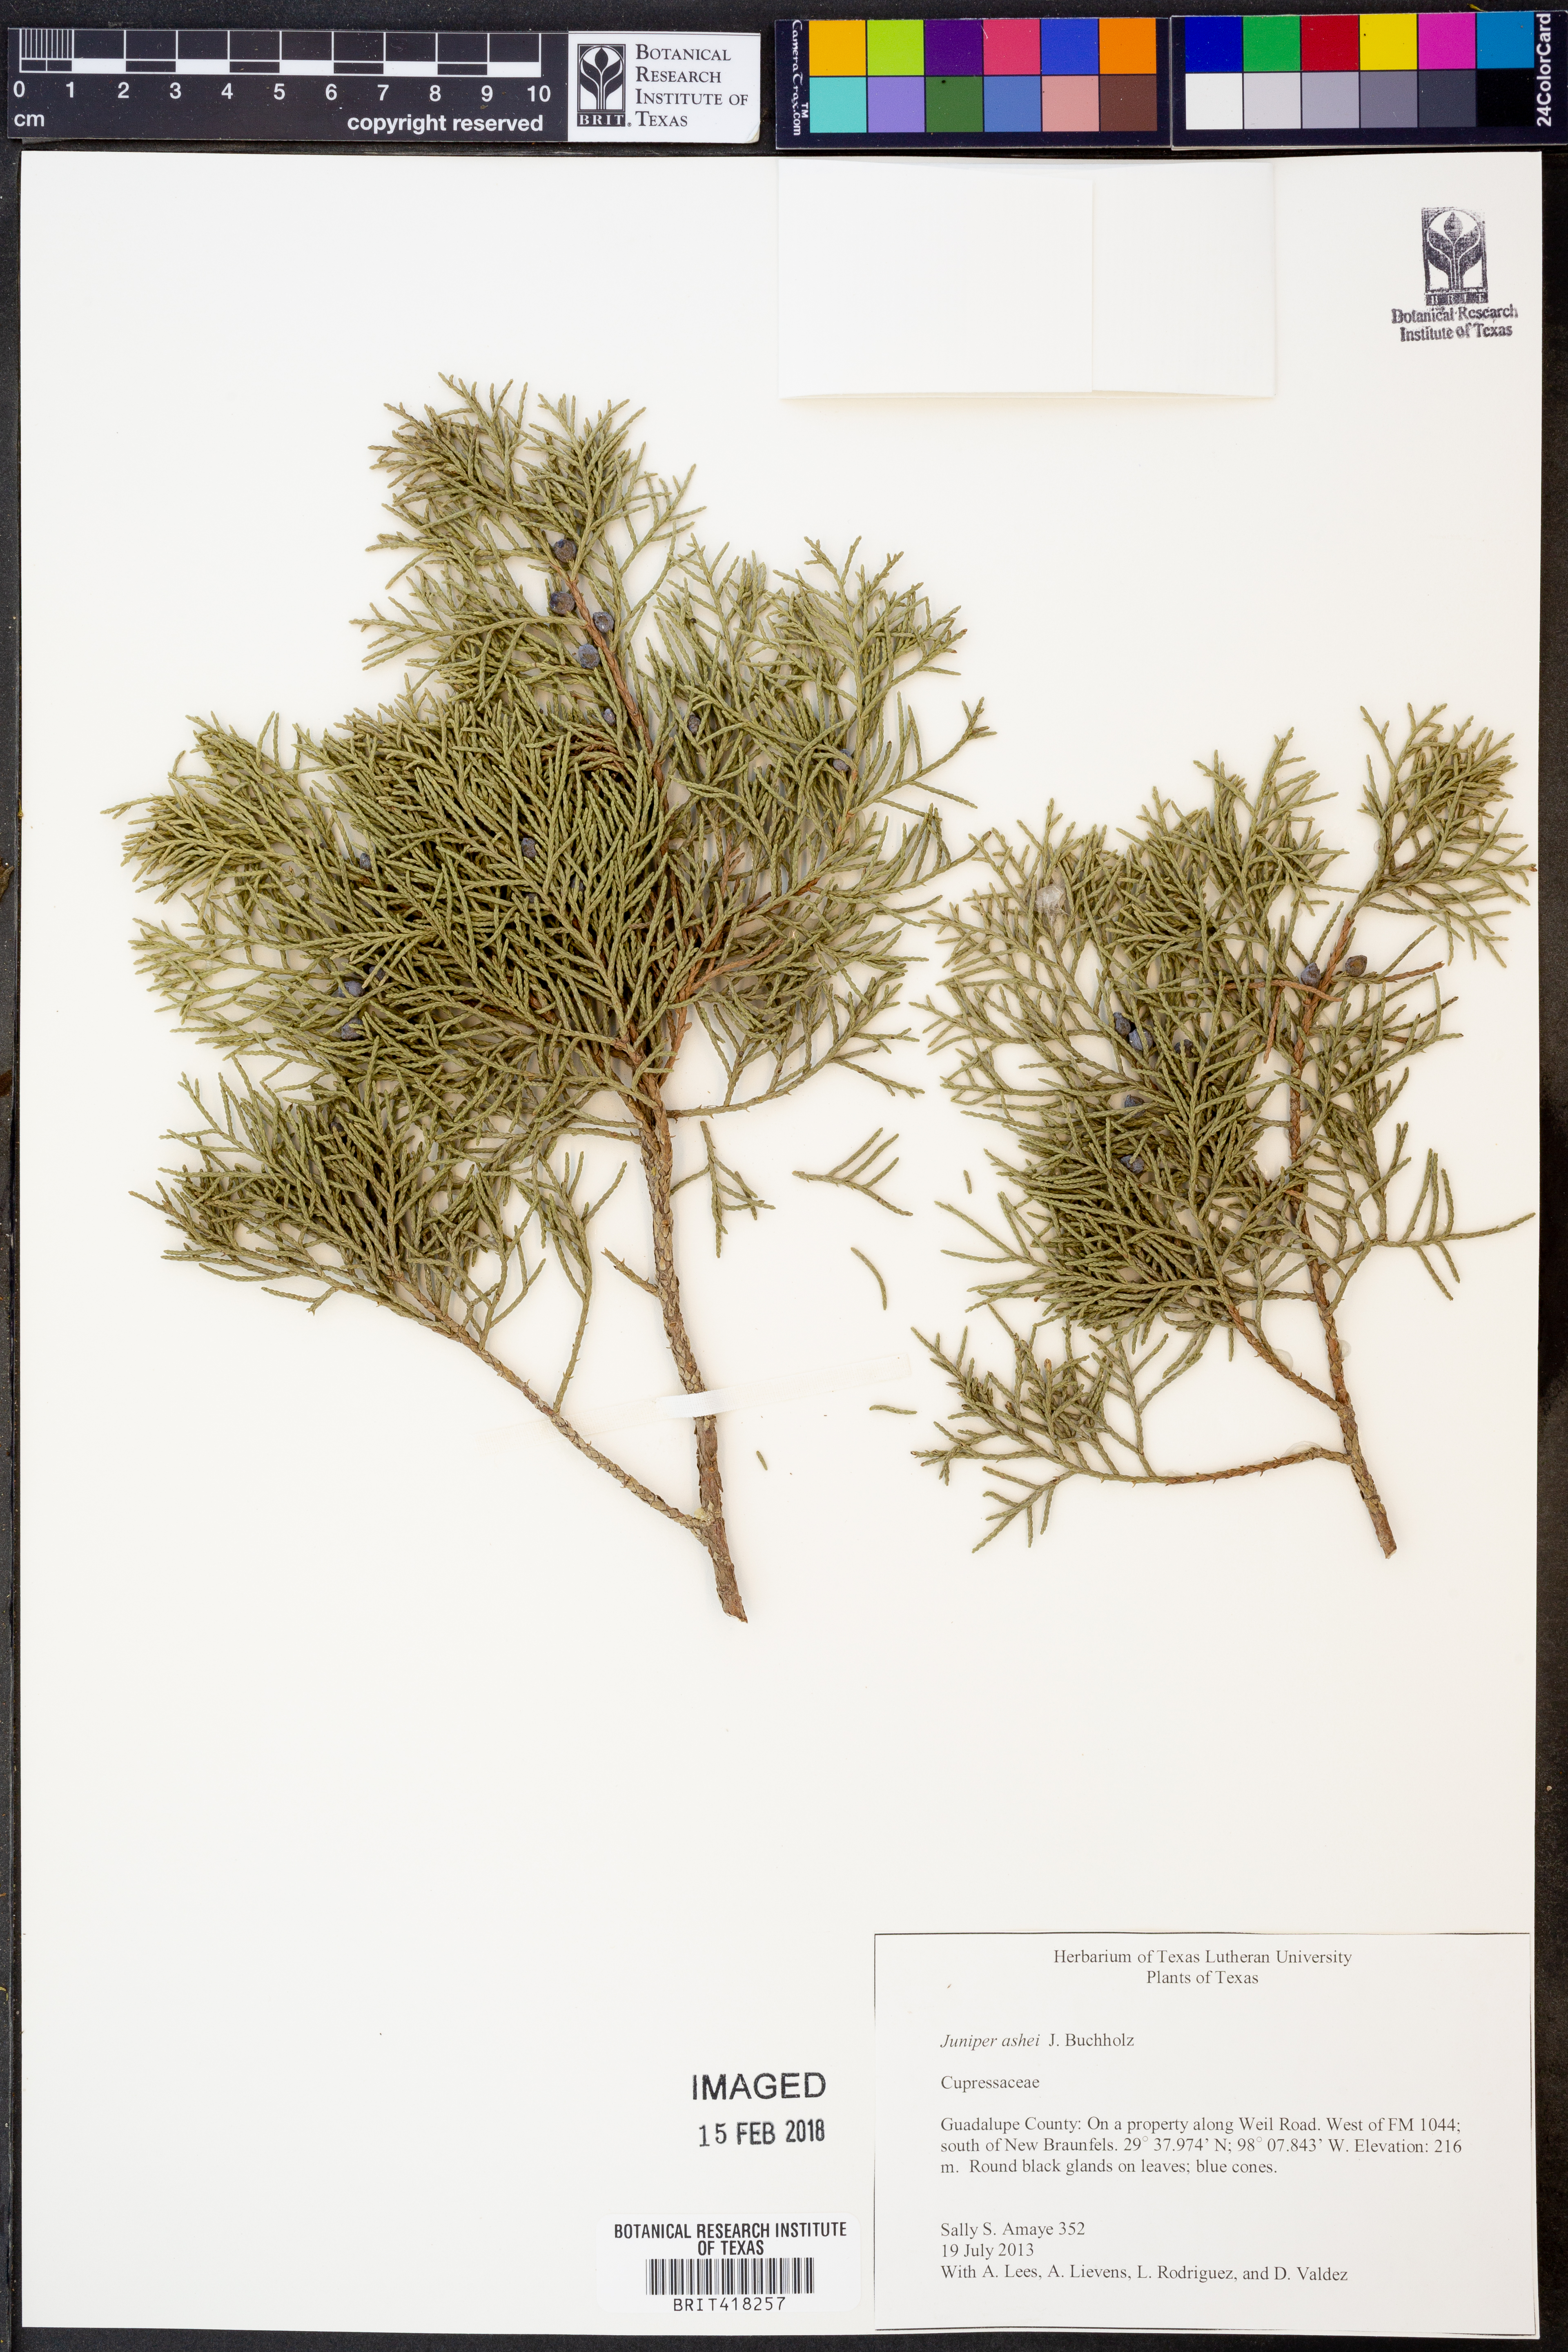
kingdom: Plantae
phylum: Tracheophyta
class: Pinopsida
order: Pinales
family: Cupressaceae
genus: Juniperus
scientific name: Juniperus ashei
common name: Mexican juniper
